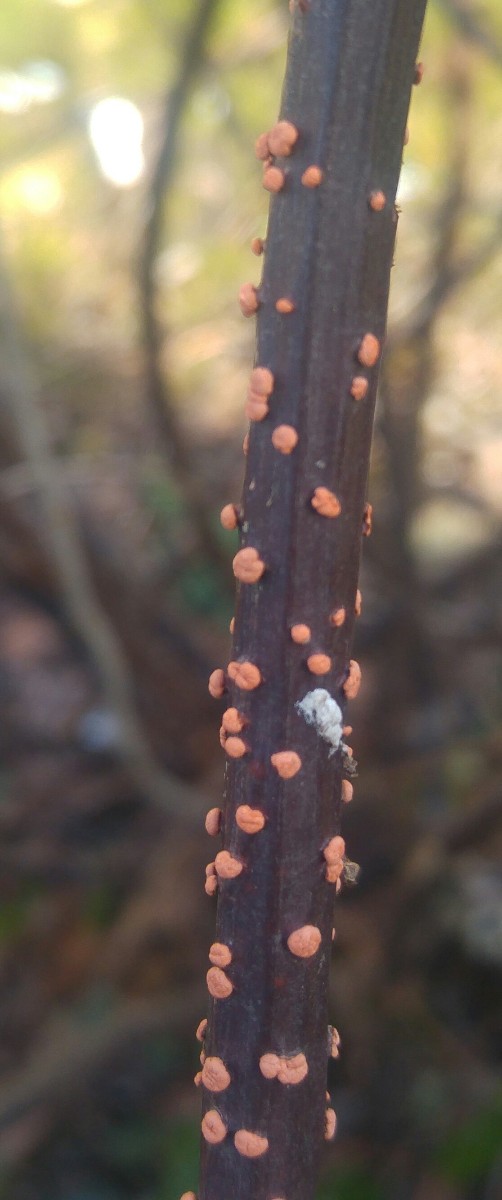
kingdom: Fungi
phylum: Ascomycota
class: Sordariomycetes
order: Hypocreales
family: Nectriaceae
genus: Nectria
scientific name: Nectria cinnabarina
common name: almindelig cinnobersvamp
